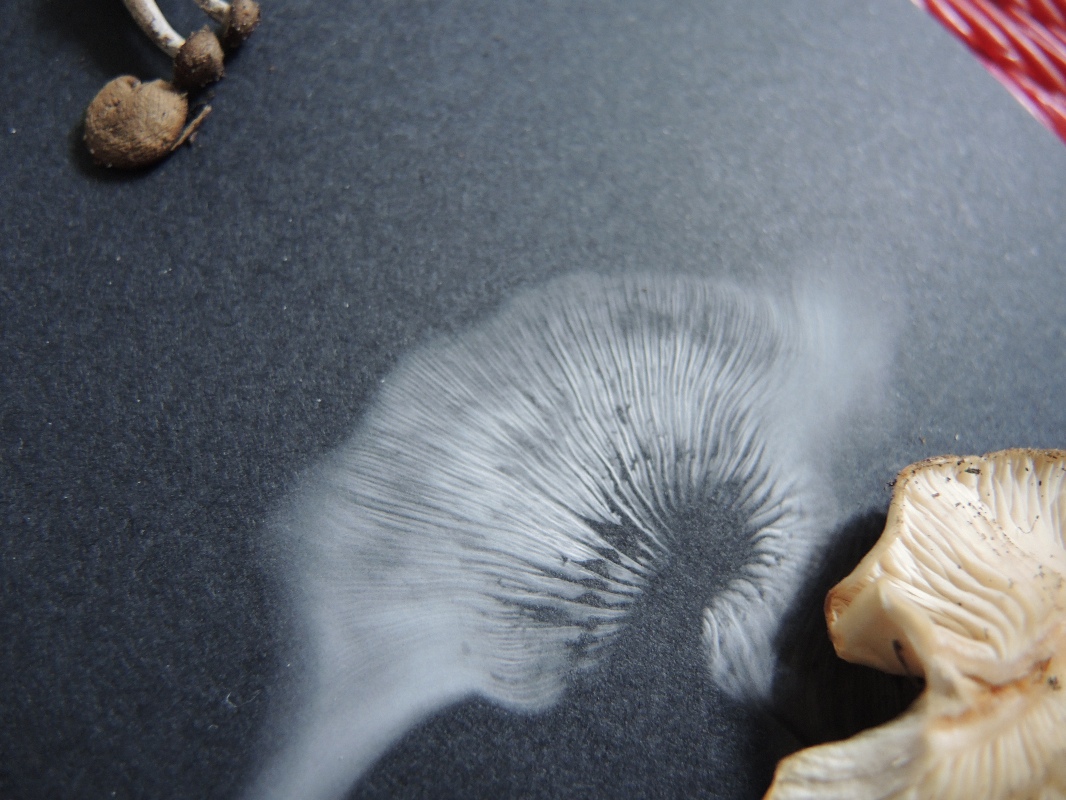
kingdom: Fungi
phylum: Basidiomycota
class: Agaricomycetes
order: Agaricales
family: Tricholomataceae
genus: Clitocybe
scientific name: Clitocybe rivulosa
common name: eng-tragthat
